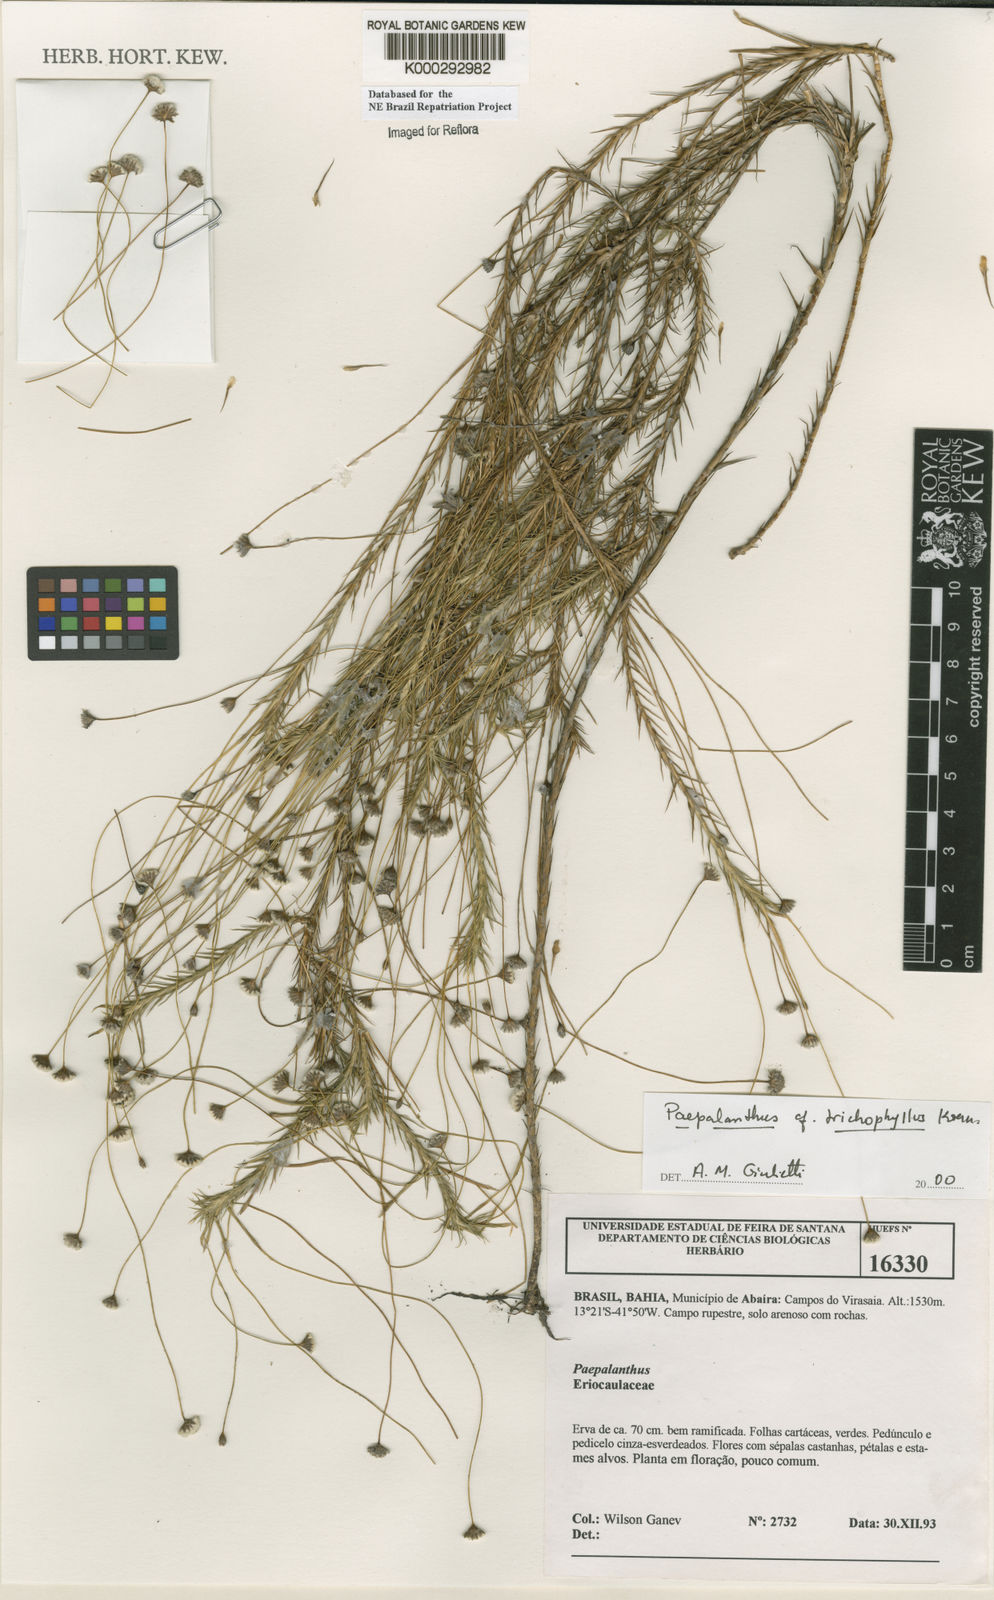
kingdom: Plantae
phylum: Tracheophyta
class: Liliopsida
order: Poales
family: Eriocaulaceae
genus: Paepalanthus
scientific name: Paepalanthus
